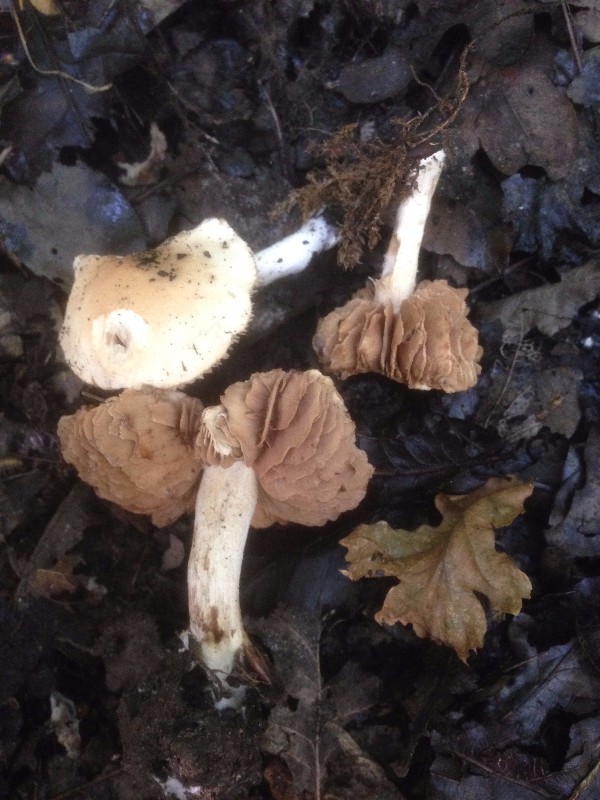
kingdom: Fungi
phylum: Basidiomycota
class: Agaricomycetes
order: Agaricales
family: Hymenogastraceae
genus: Hebeloma
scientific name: Hebeloma sacchariolens
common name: sødtduftende tåreblad
